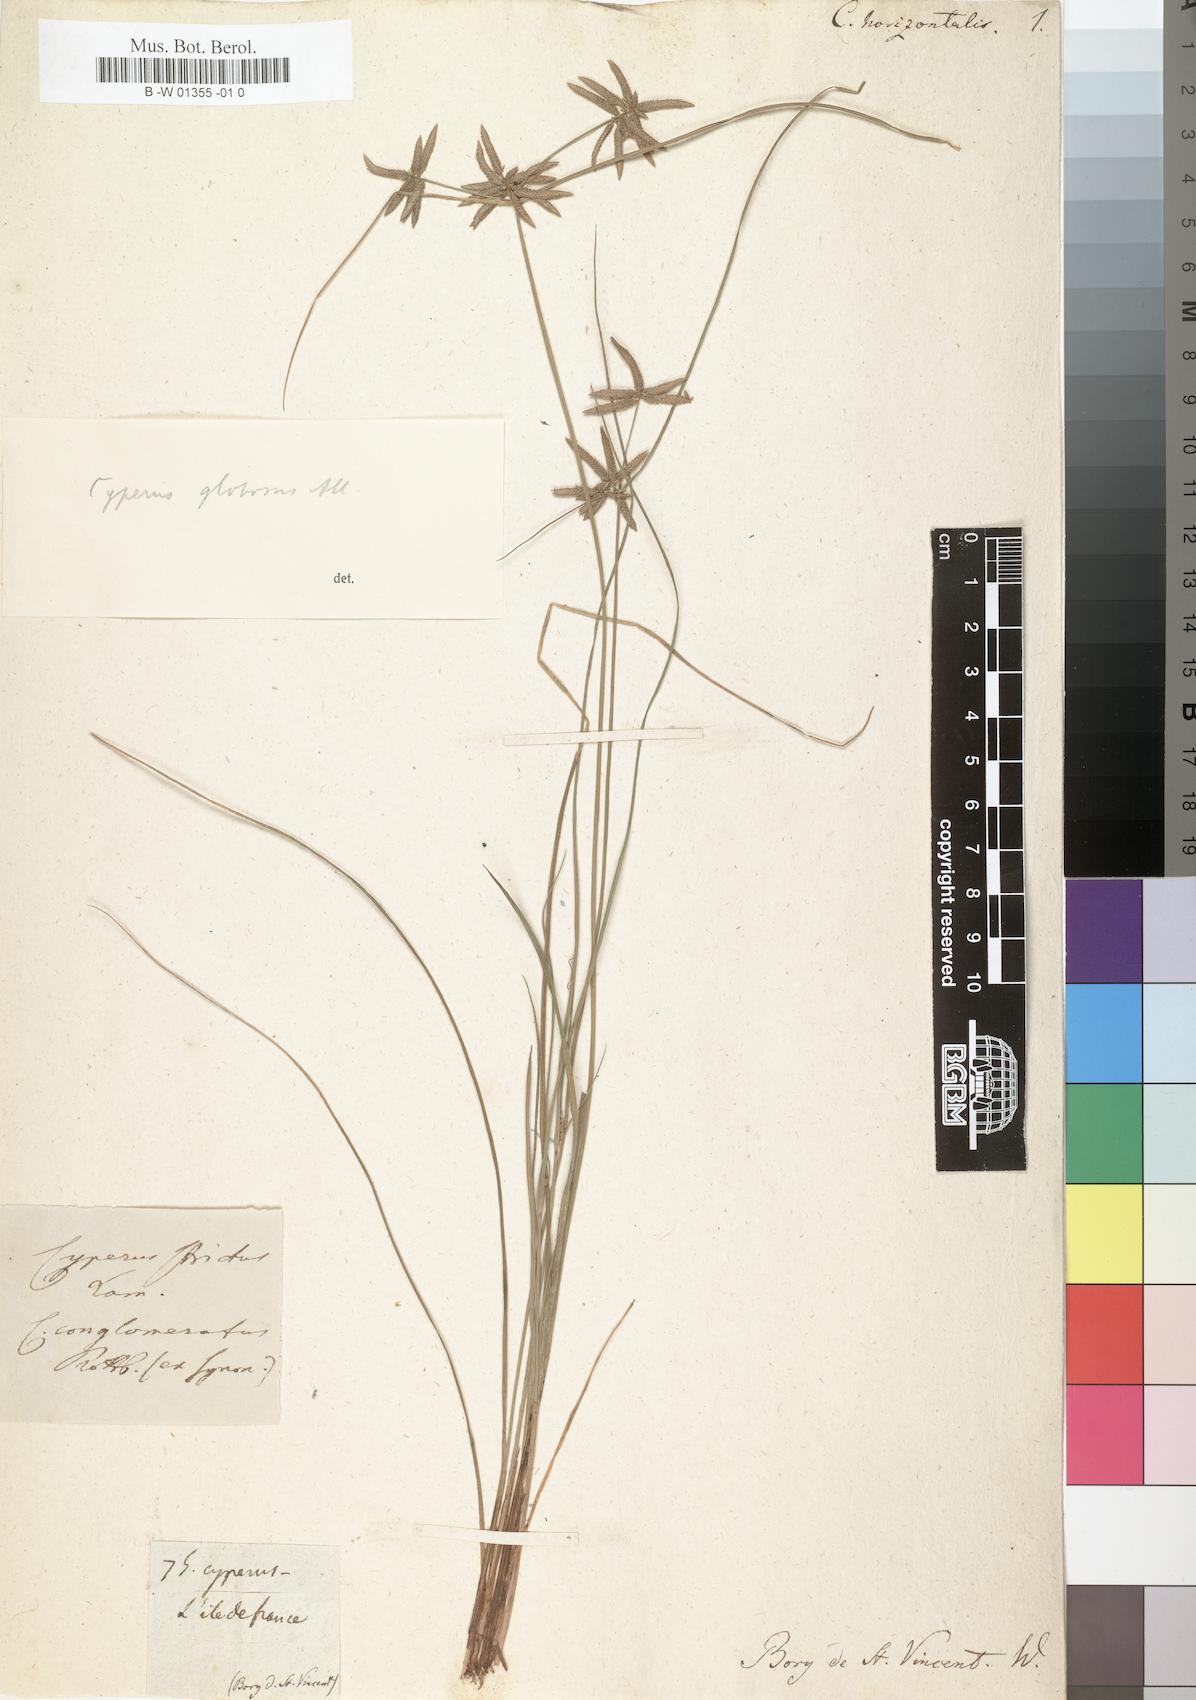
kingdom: Plantae
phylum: Tracheophyta
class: Liliopsida
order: Poales
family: Cyperaceae
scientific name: Cyperaceae
